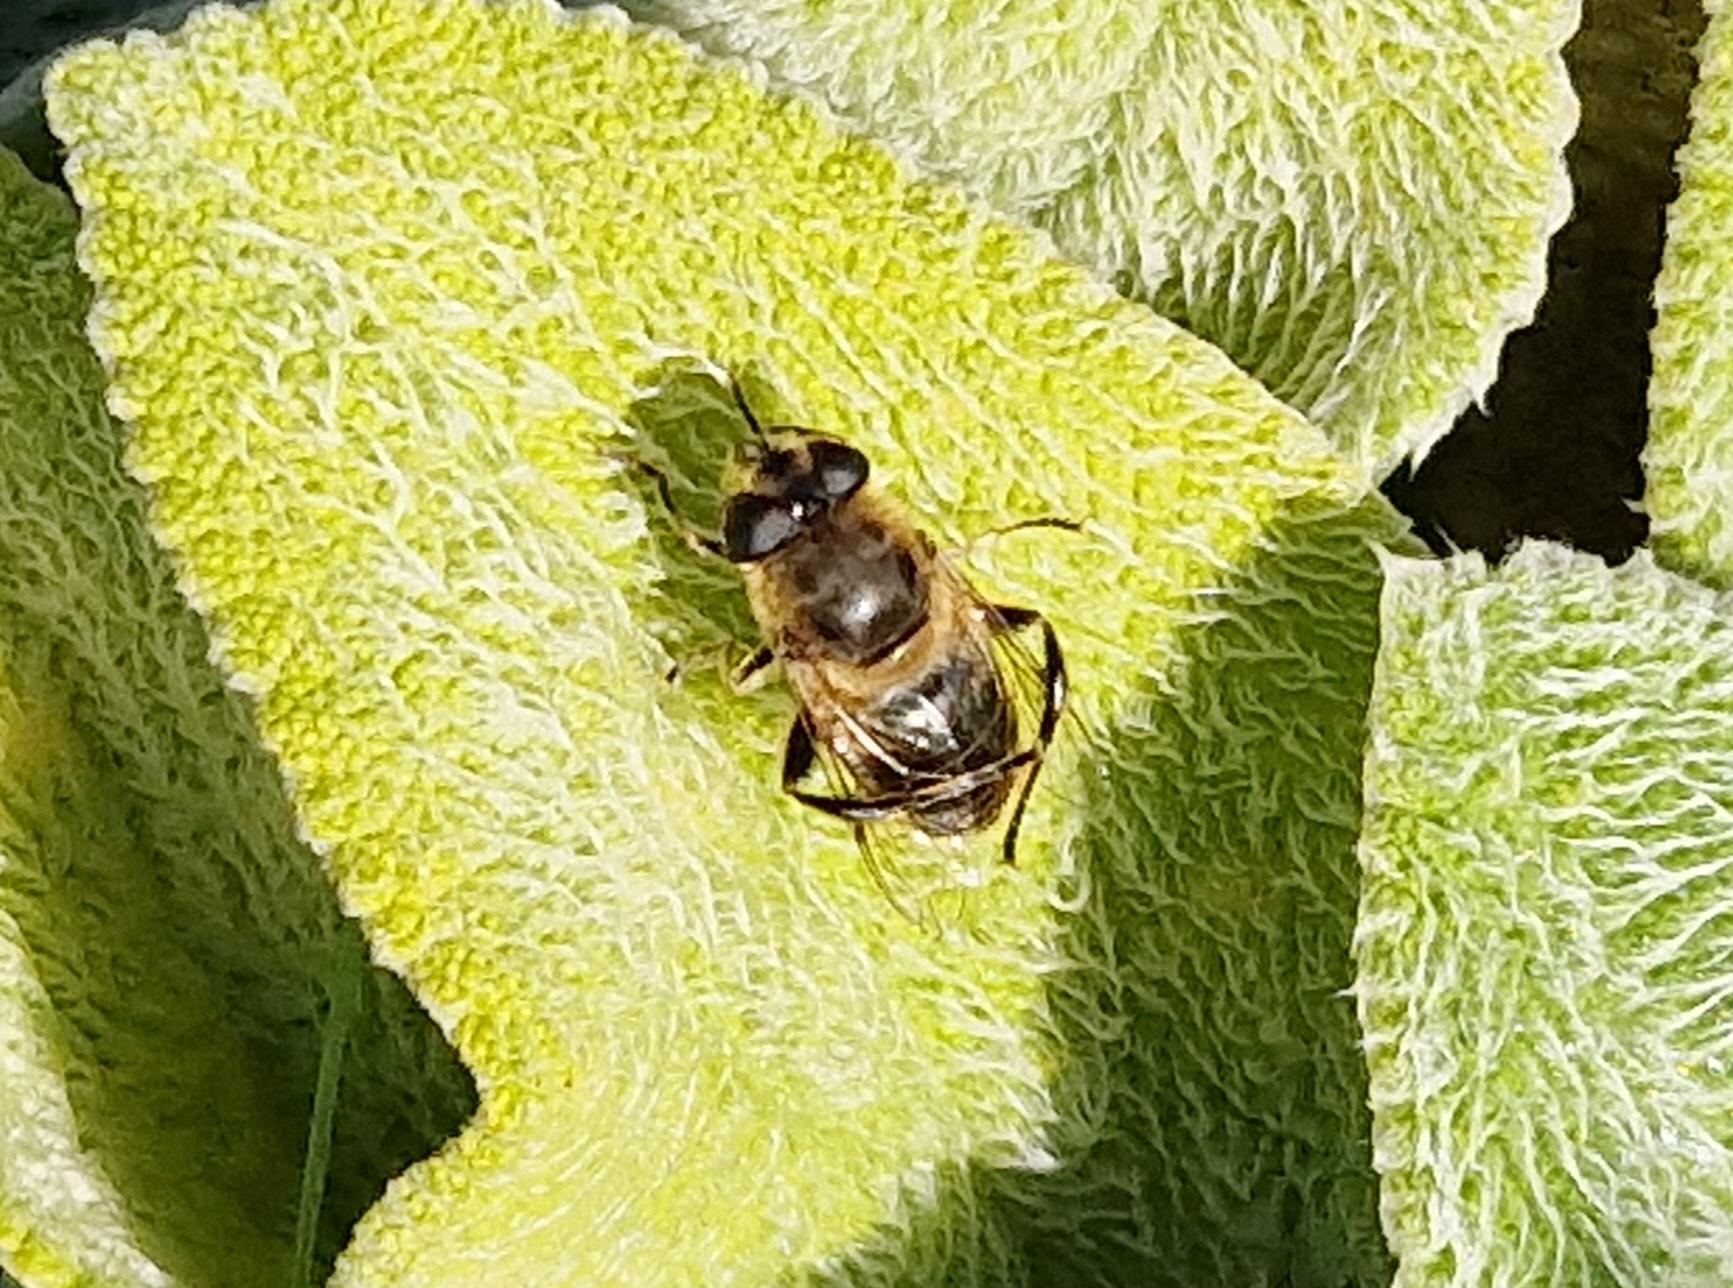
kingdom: Animalia
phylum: Arthropoda
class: Insecta
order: Diptera
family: Syrphidae
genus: Eristalis
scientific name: Eristalis tenax
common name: Droneflue
